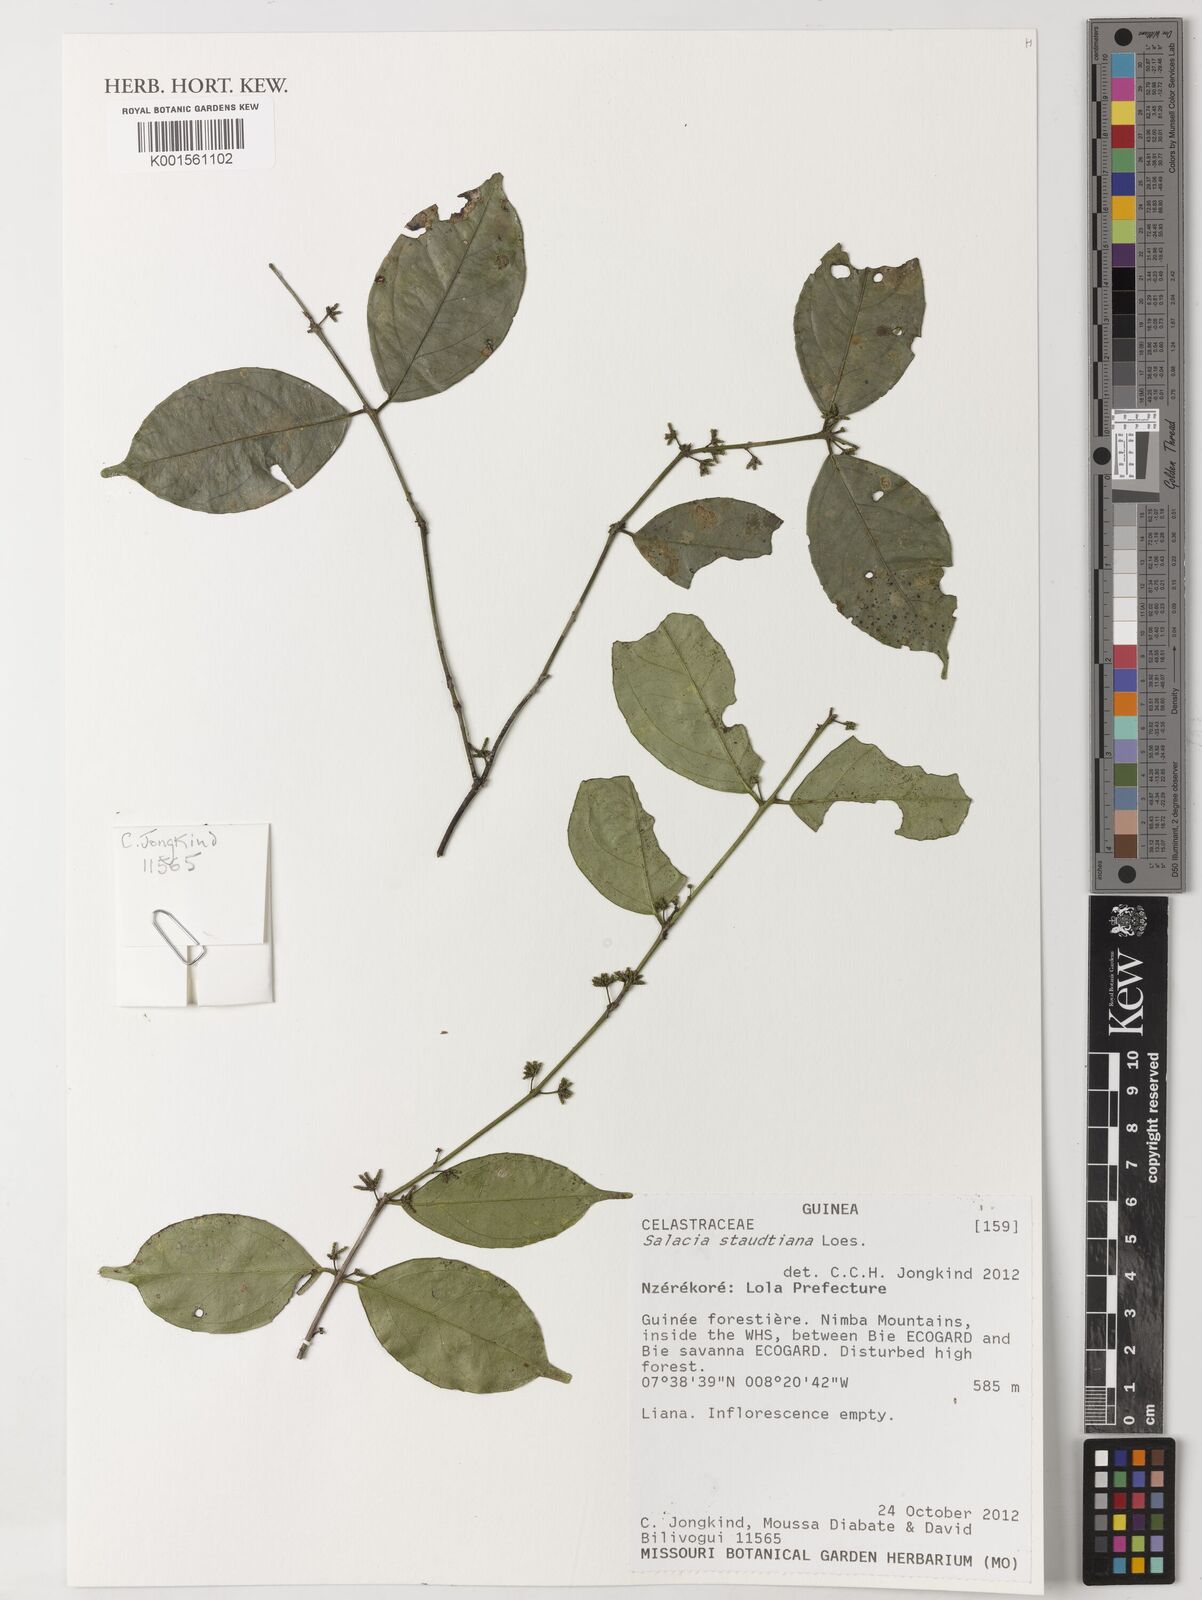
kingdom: Plantae
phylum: Tracheophyta
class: Magnoliopsida
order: Celastrales
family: Celastraceae
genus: Salacia
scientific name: Salacia staudtiana
